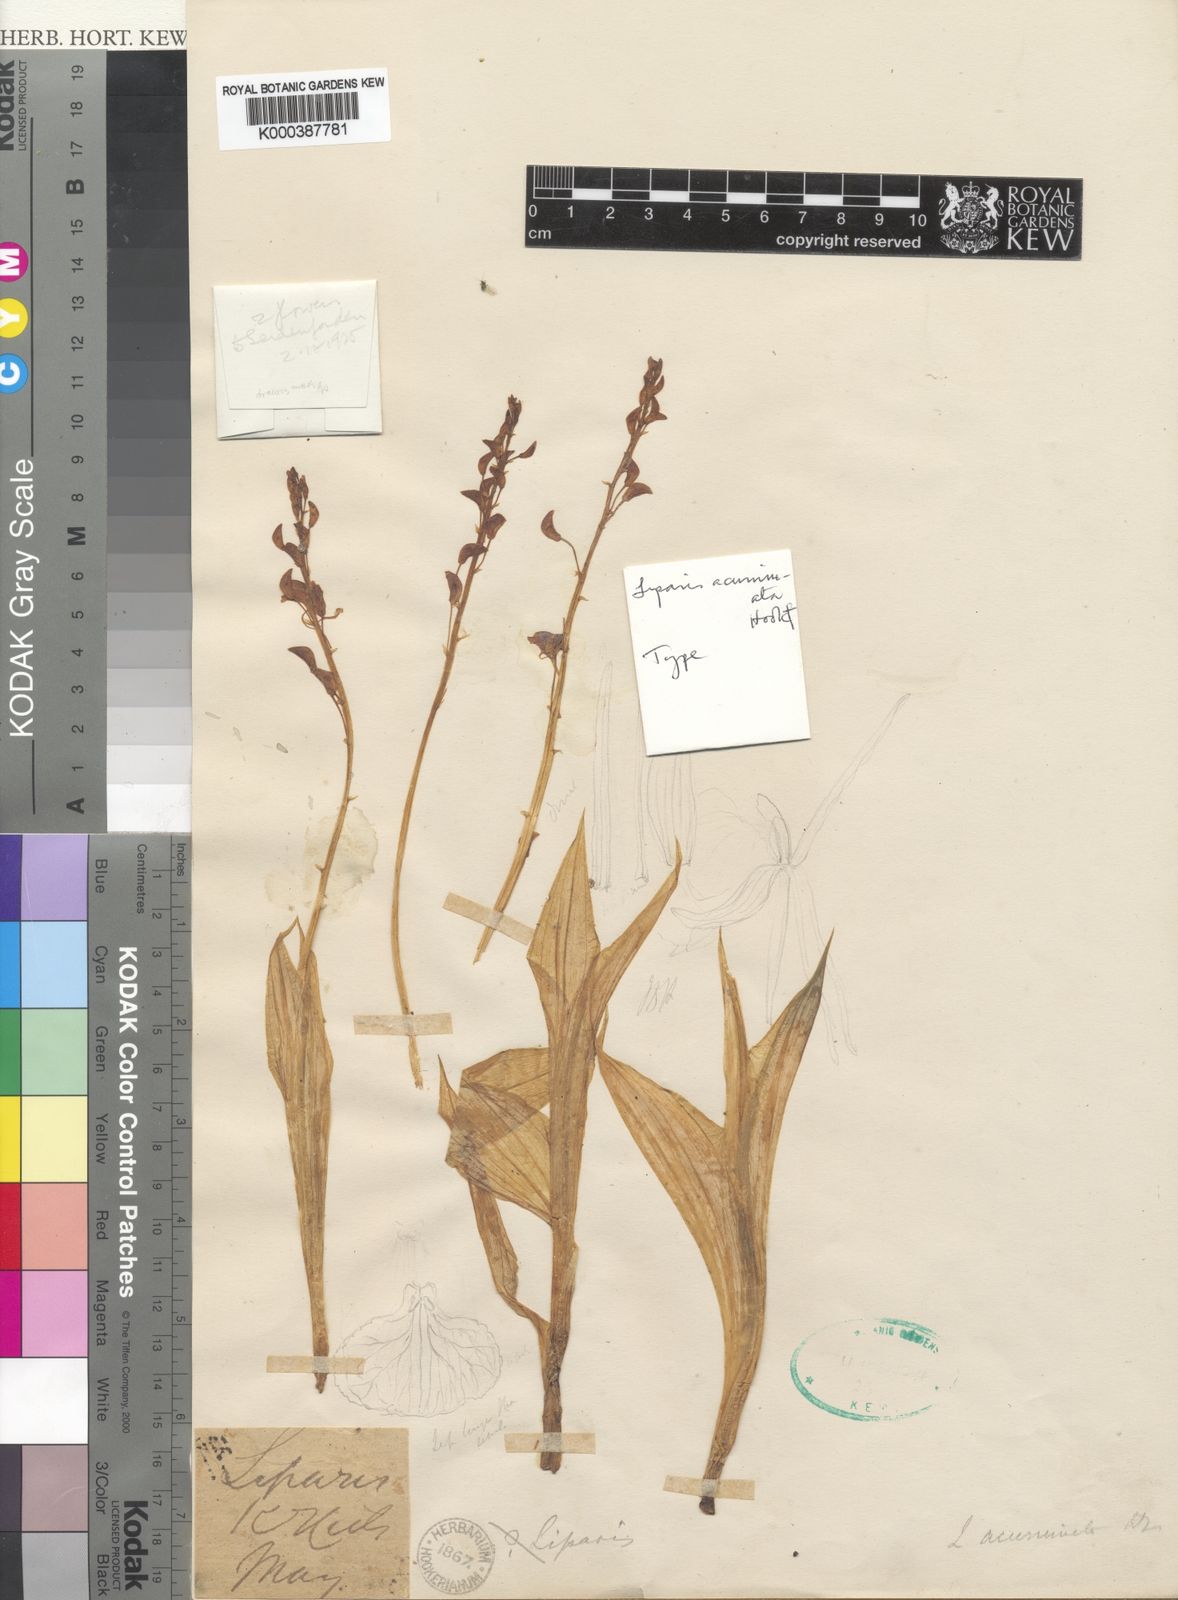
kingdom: Plantae
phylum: Tracheophyta
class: Liliopsida
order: Asparagales
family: Orchidaceae
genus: Liparis
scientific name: Liparis acuminata
